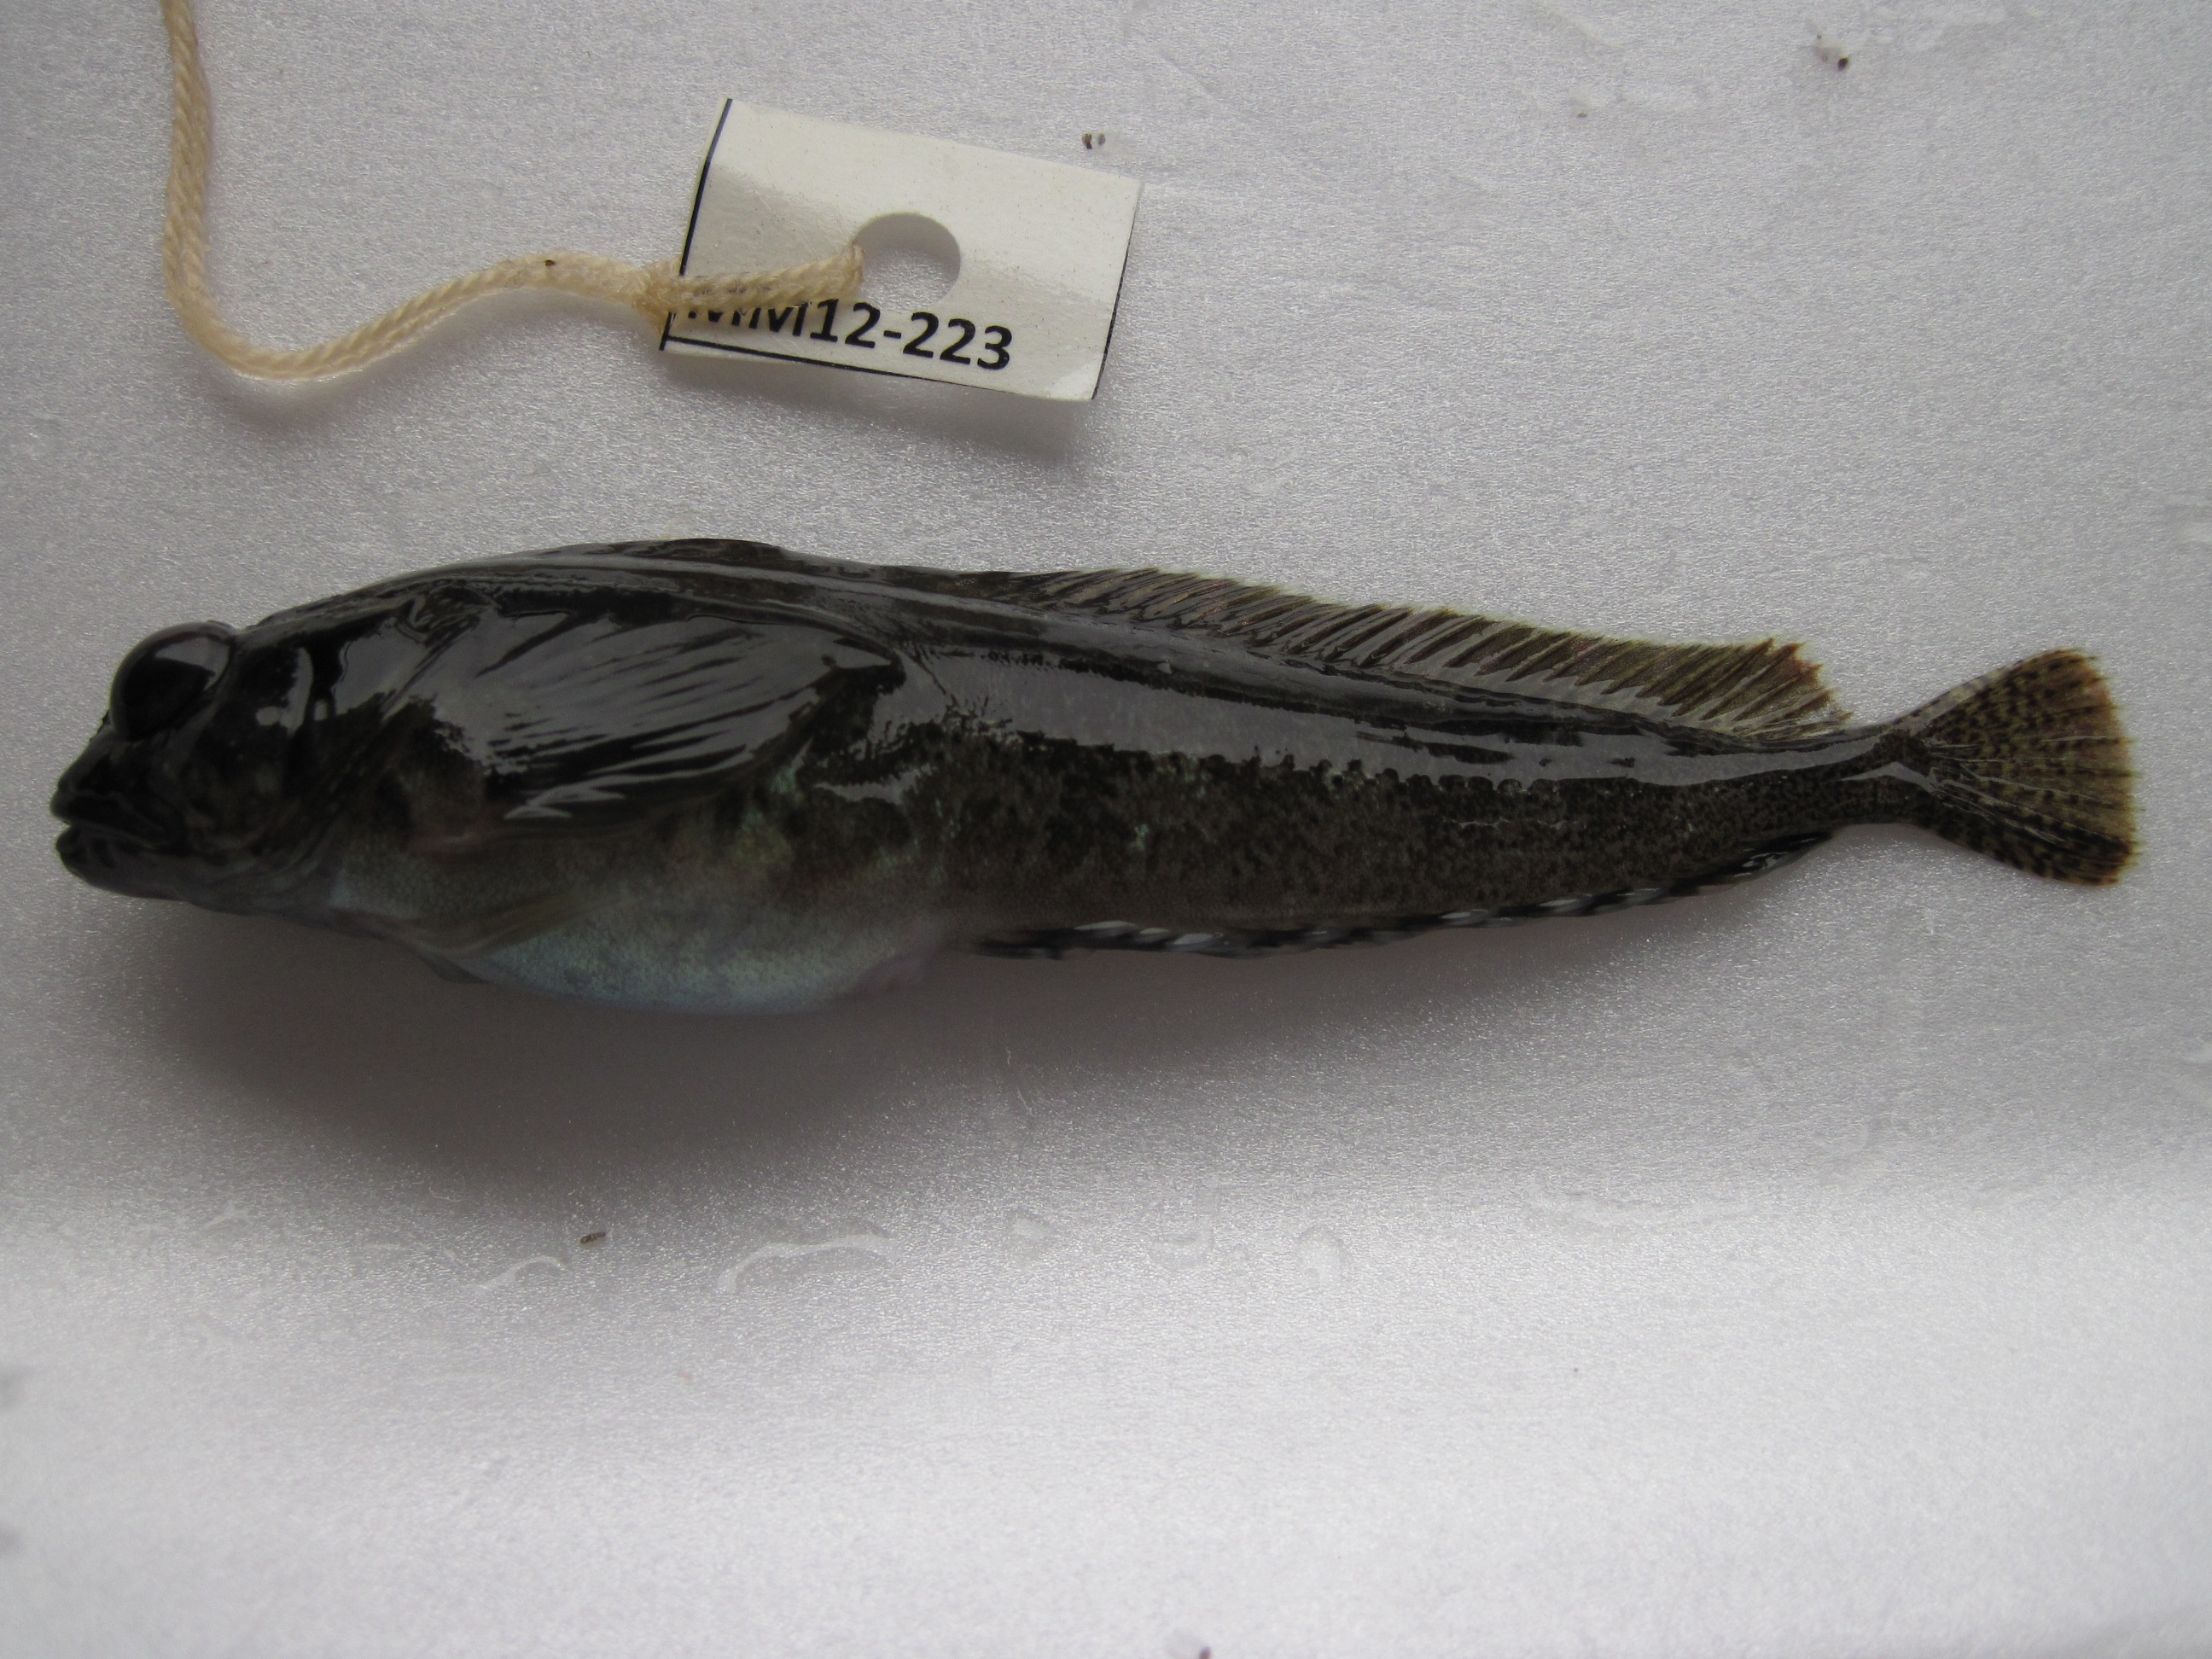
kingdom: Animalia
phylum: Chordata
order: Perciformes
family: Clinidae
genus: Clinus
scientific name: Clinus cottoides
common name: Bluntnose klipfish
